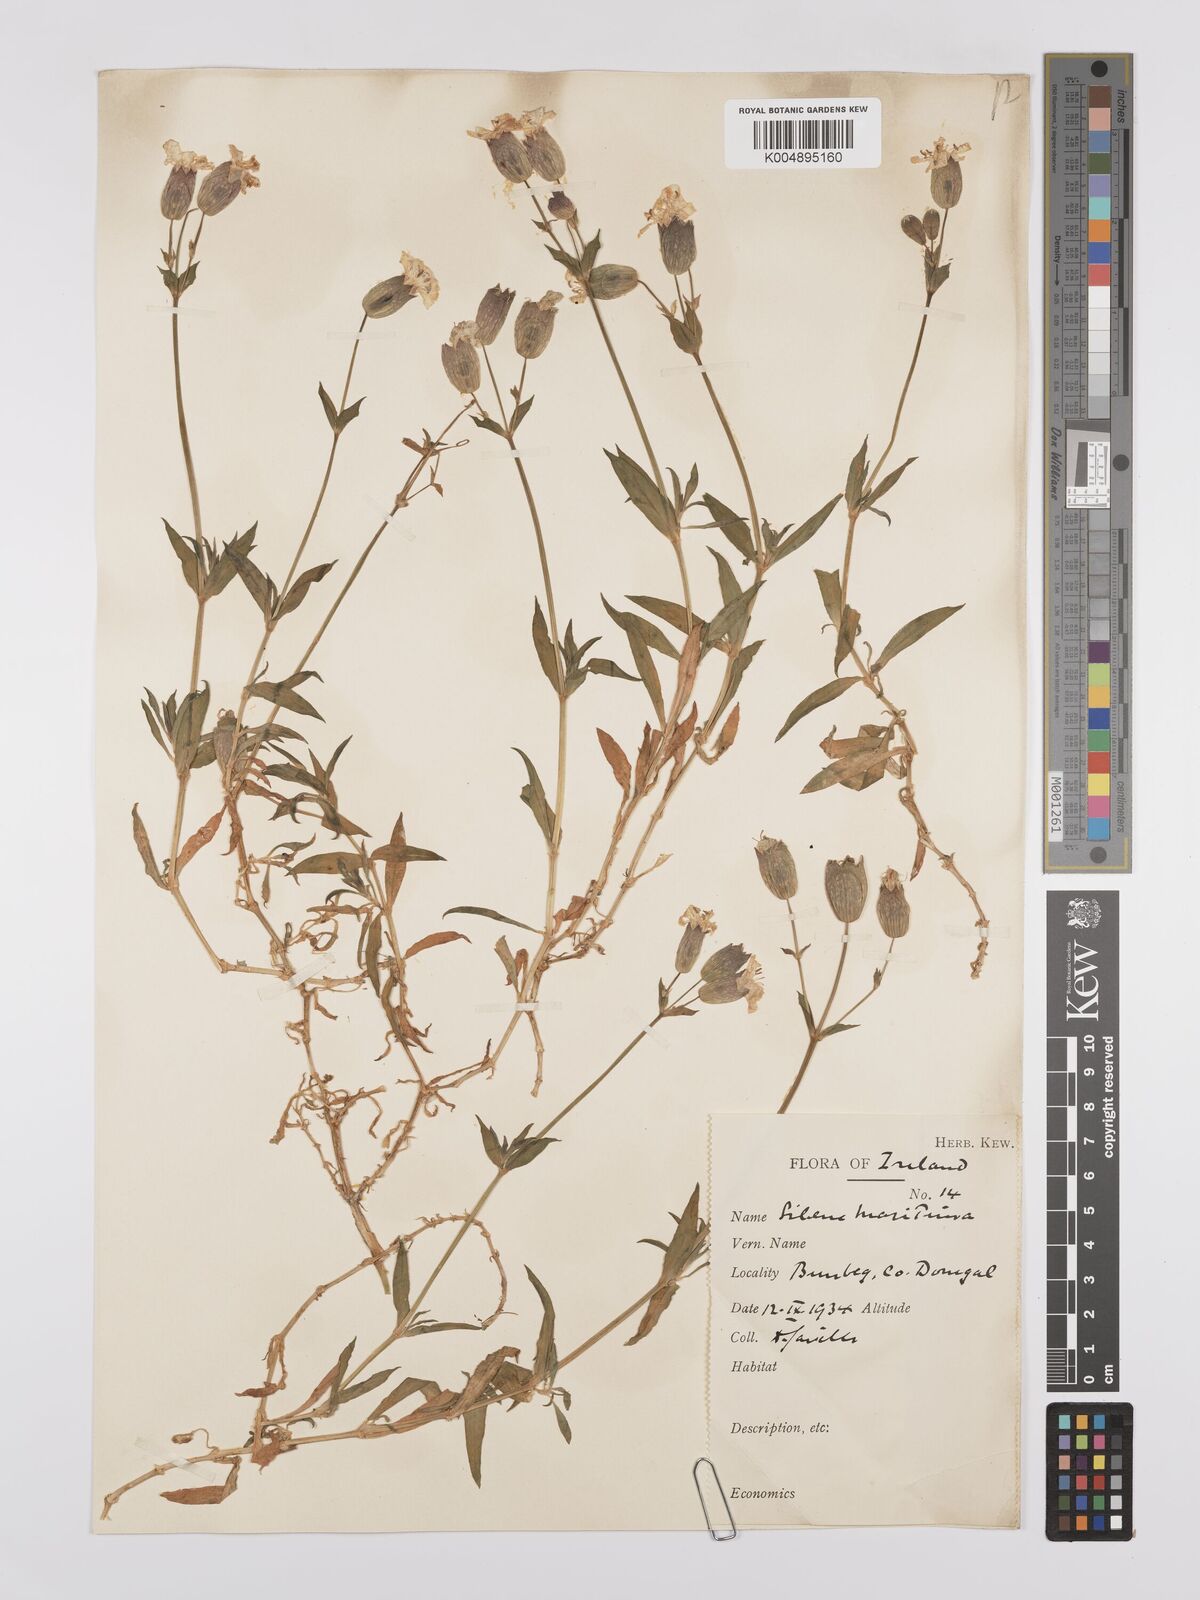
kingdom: Plantae
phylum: Tracheophyta
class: Magnoliopsida
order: Caryophyllales
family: Caryophyllaceae
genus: Silene
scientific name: Silene uniflora
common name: Sea campion
